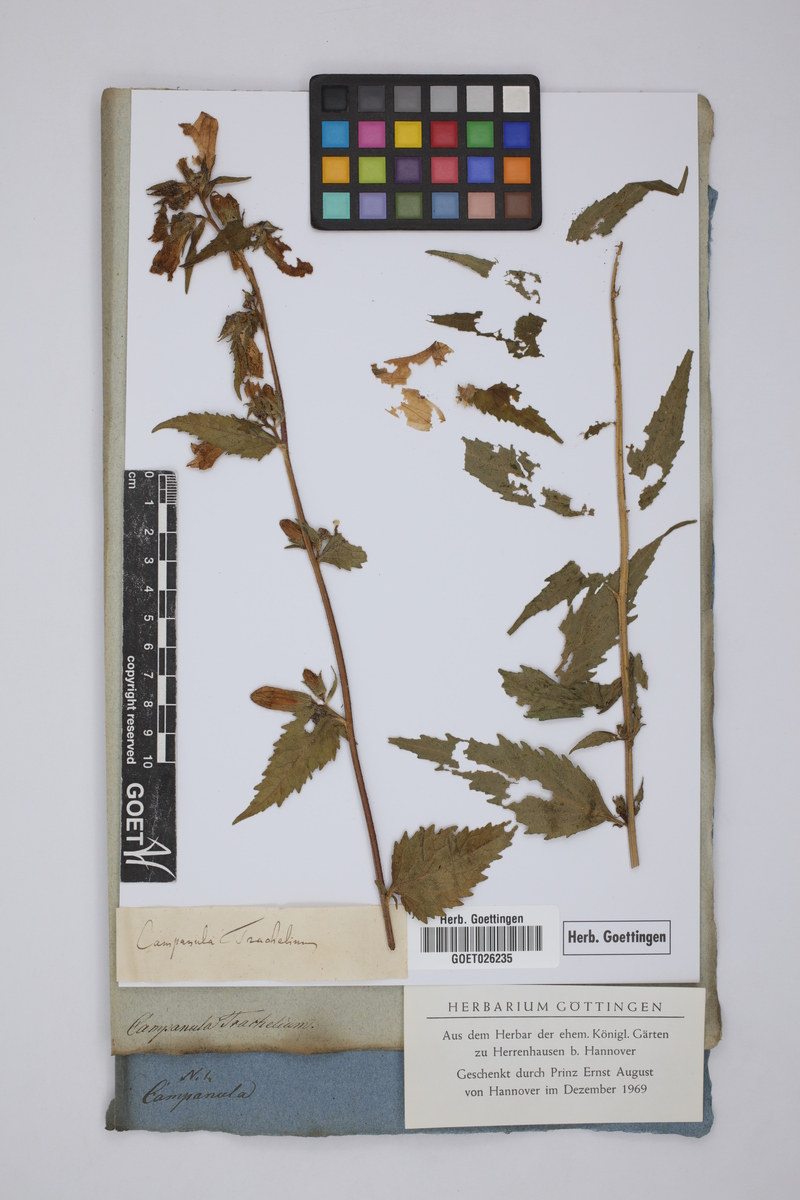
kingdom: Plantae
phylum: Tracheophyta
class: Magnoliopsida
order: Asterales
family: Campanulaceae
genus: Campanula
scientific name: Campanula trachelium
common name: Nettle-leaved bellflower
